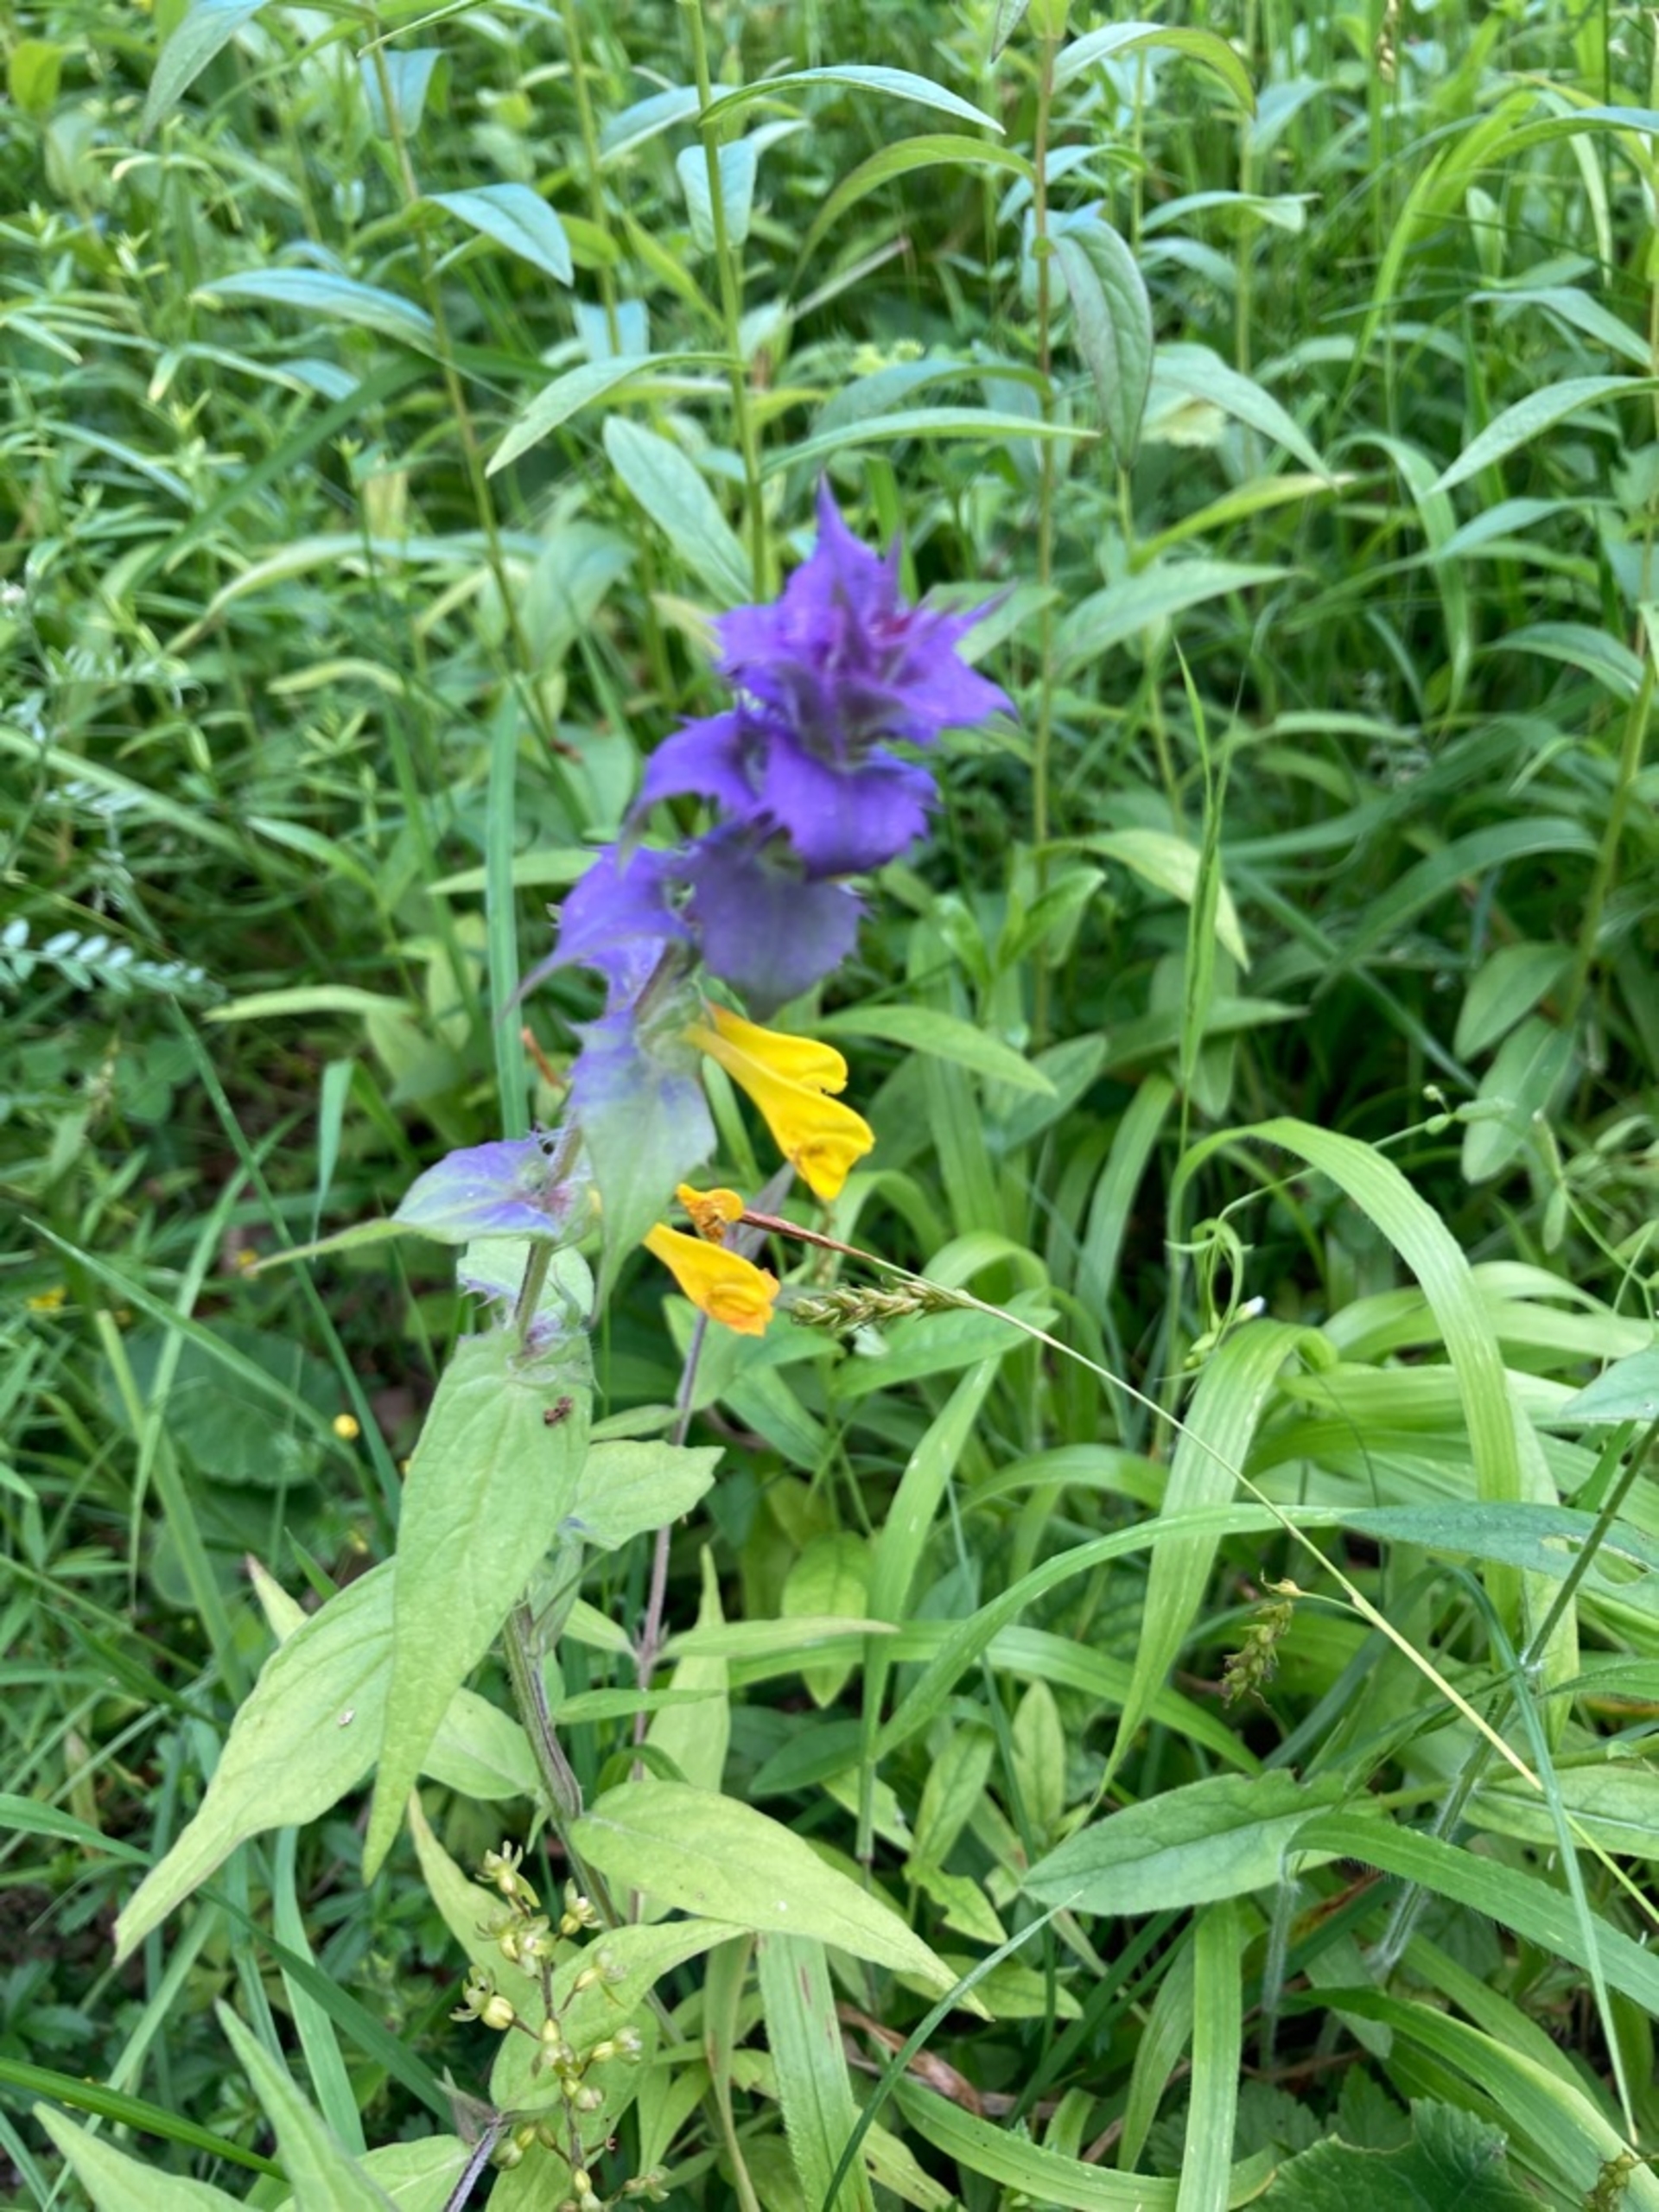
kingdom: Plantae
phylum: Tracheophyta
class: Magnoliopsida
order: Lamiales
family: Orobanchaceae
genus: Melampyrum
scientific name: Melampyrum nemorosum
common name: Blåtoppet kohvede
